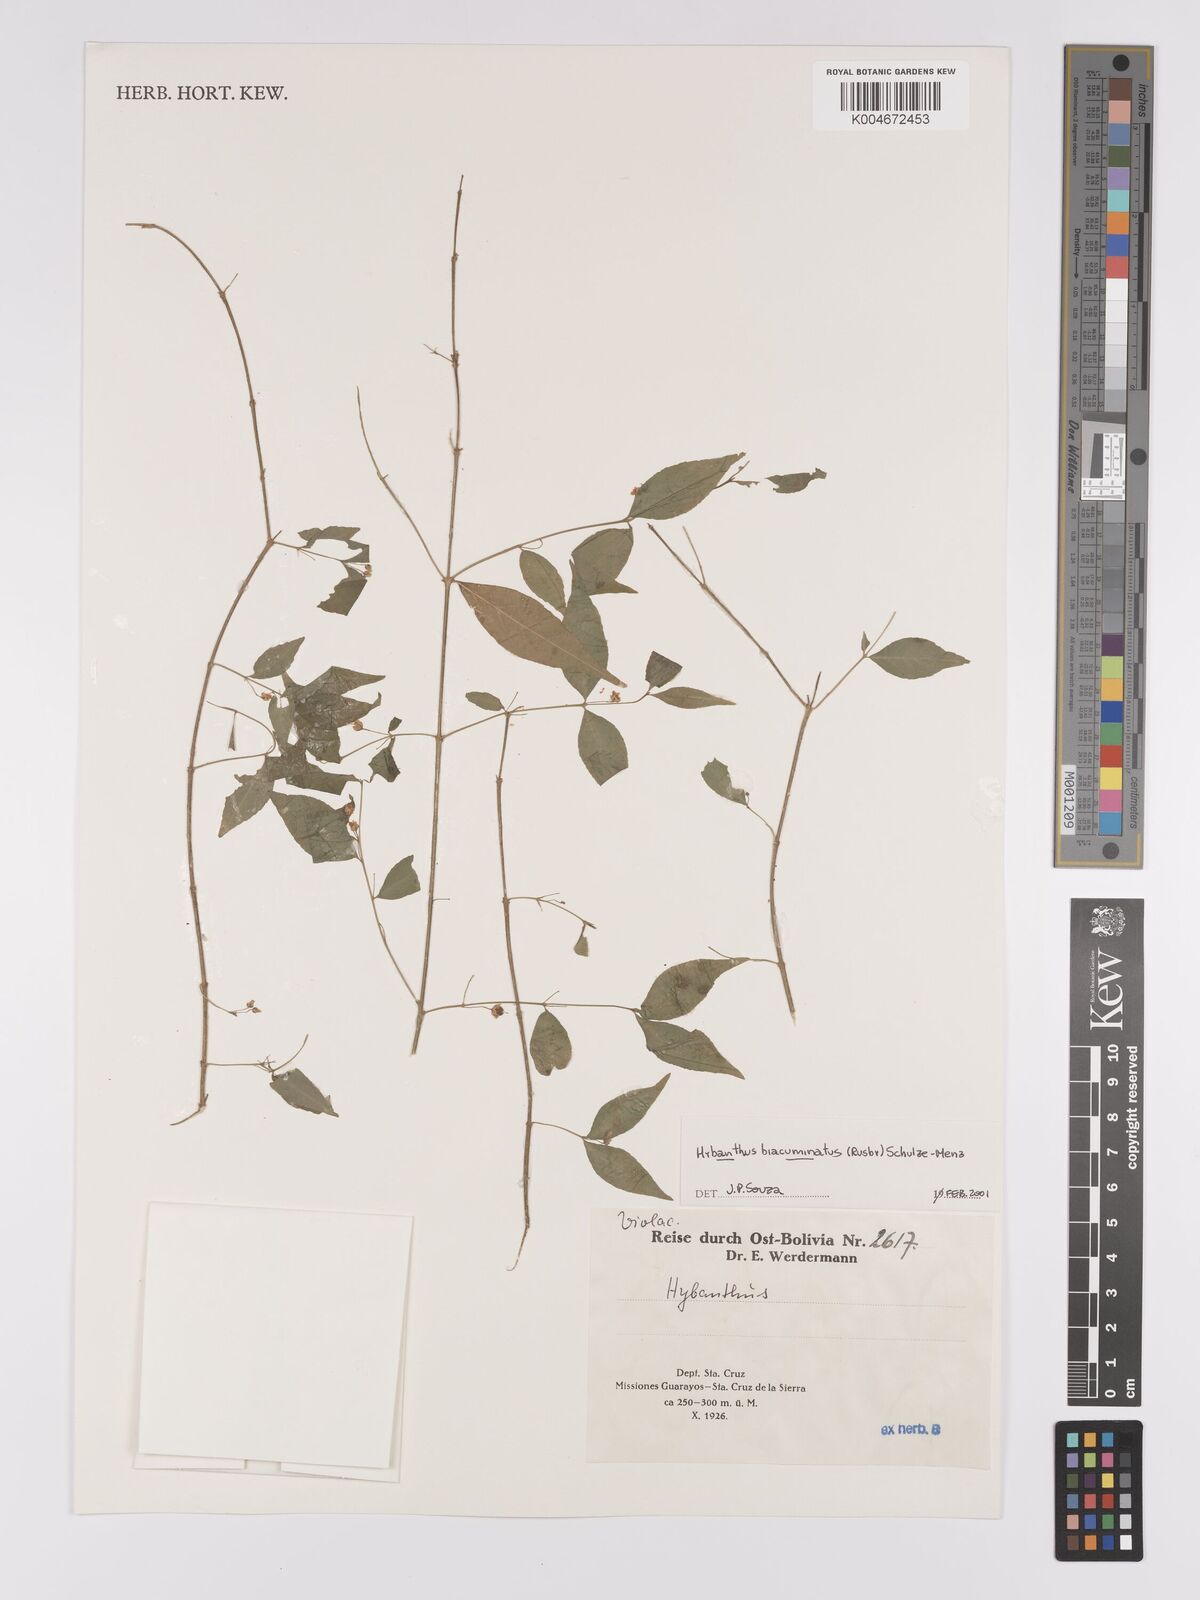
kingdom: Plantae
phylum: Tracheophyta
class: Magnoliopsida
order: Malpighiales
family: Violaceae
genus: Pombalia
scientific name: Pombalia sprucei
